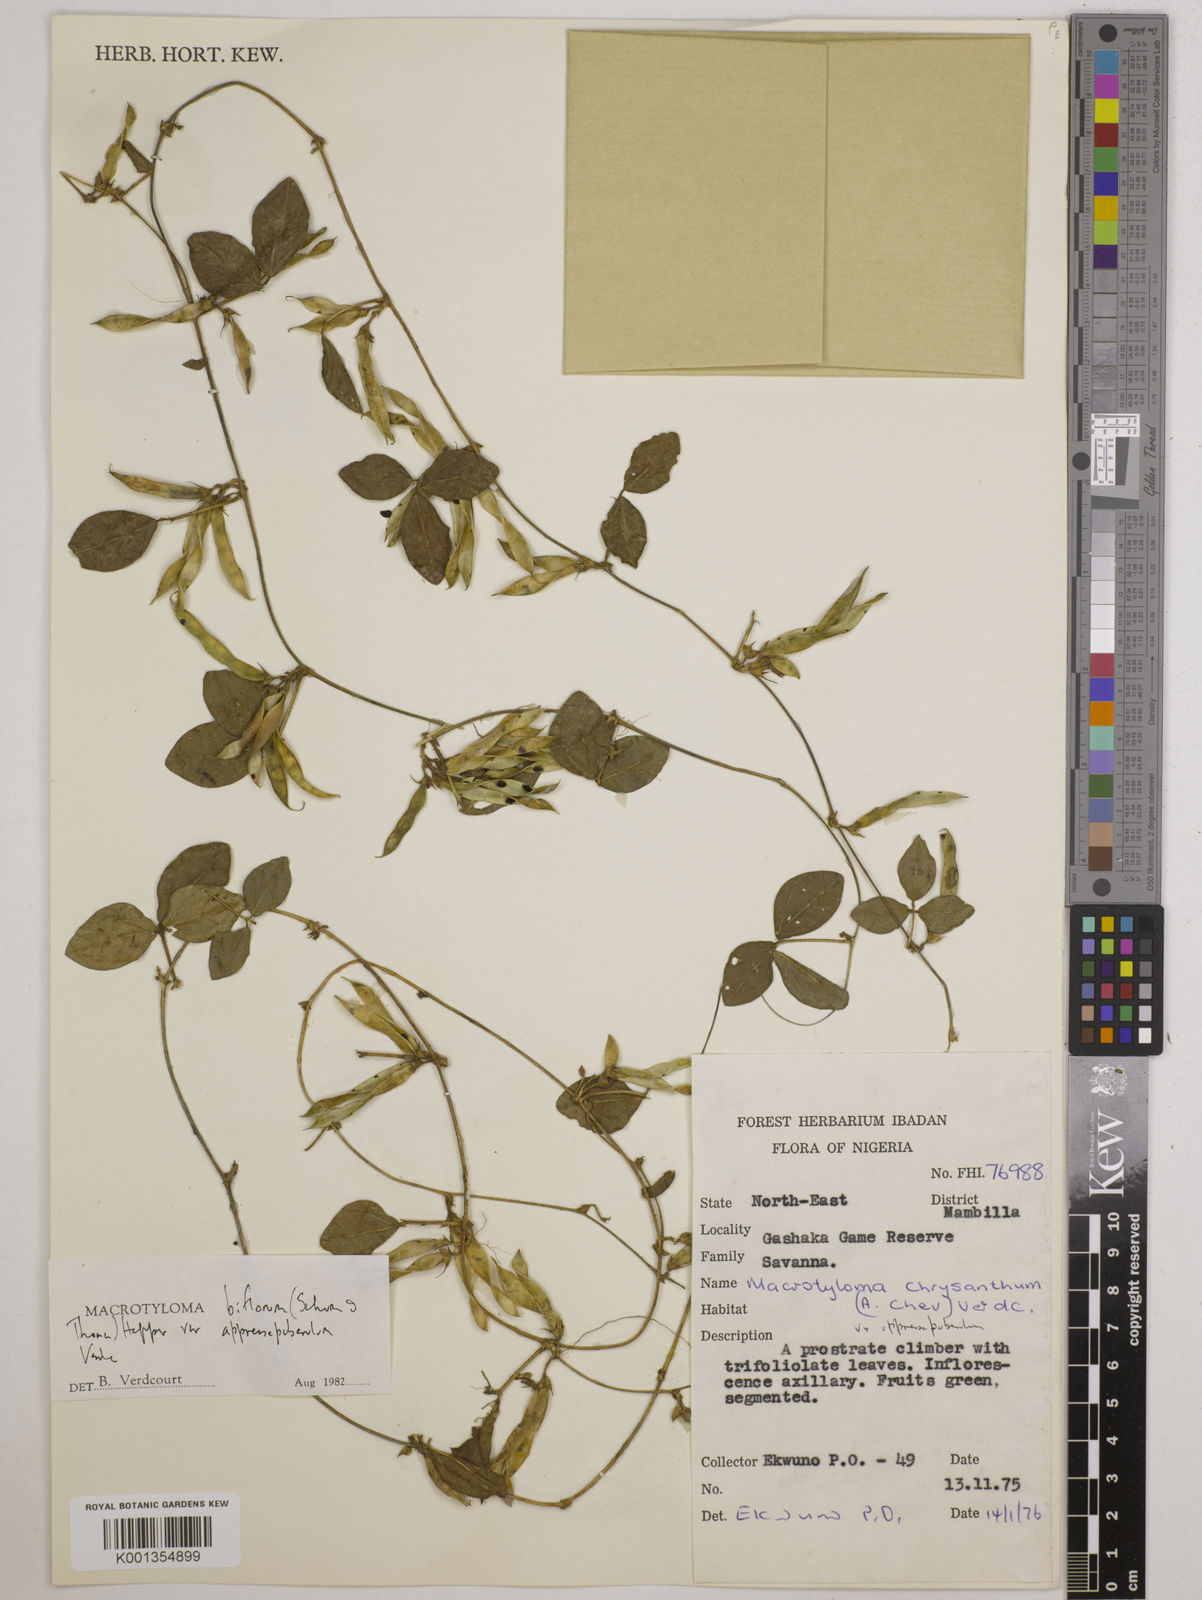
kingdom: Plantae
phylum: Tracheophyta
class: Magnoliopsida
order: Fabales
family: Fabaceae
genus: Macrotyloma
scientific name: Macrotyloma biflorum
